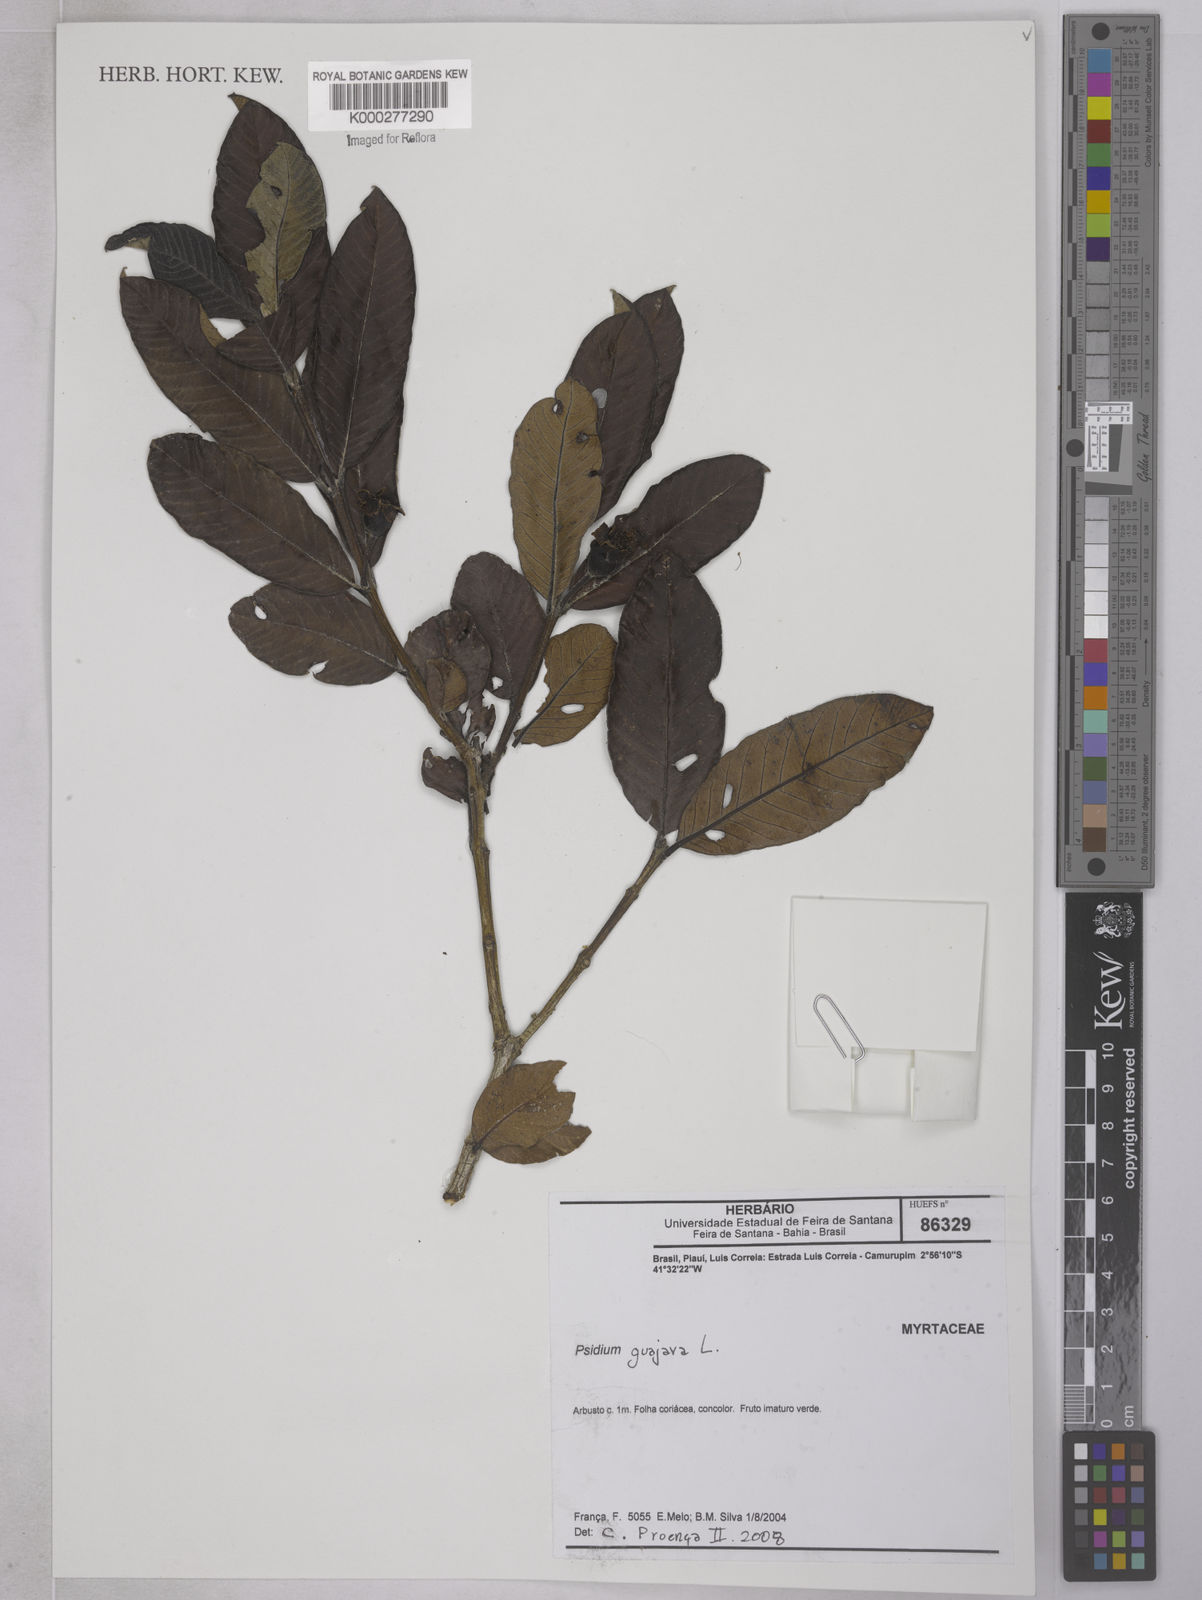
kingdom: Plantae
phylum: Tracheophyta
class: Magnoliopsida
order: Myrtales
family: Myrtaceae
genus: Psidium
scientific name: Psidium guajava
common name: Guava
